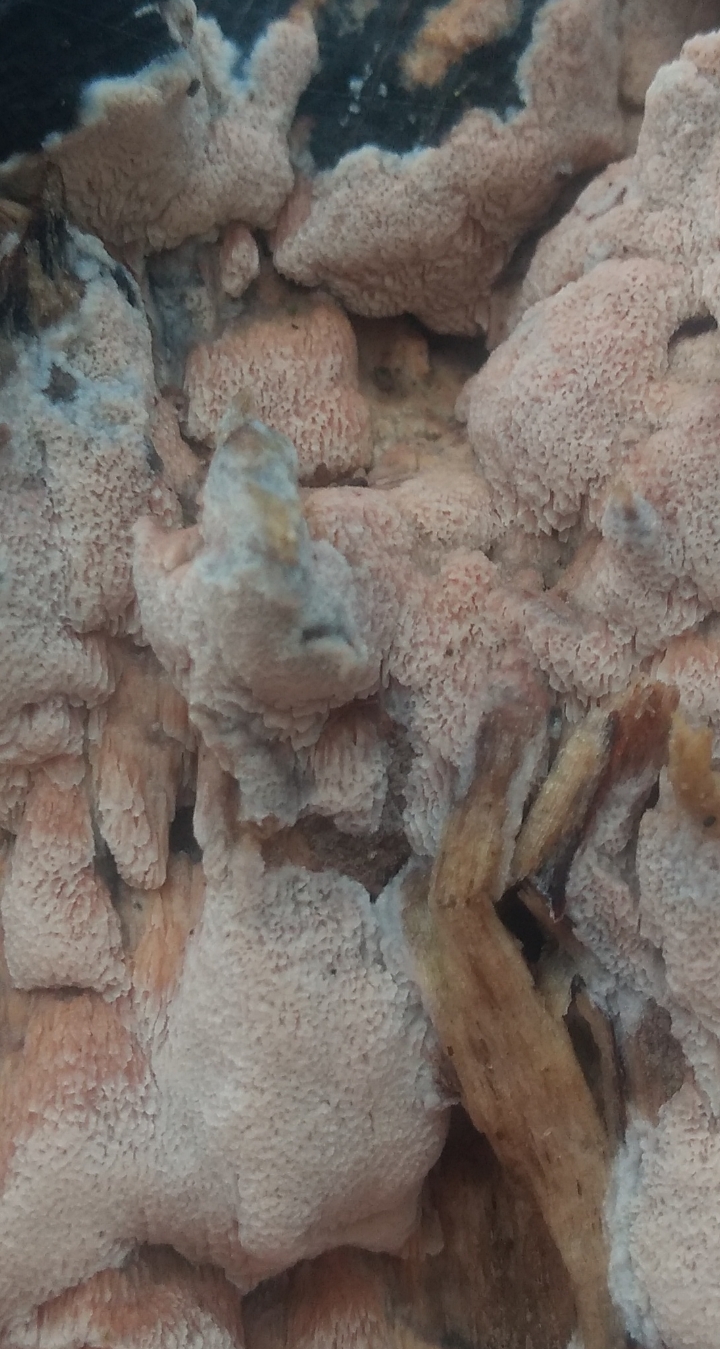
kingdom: Fungi
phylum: Basidiomycota
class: Agaricomycetes
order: Polyporales
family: Meruliaceae
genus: Mycoacia
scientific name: Mycoacia gilvescens
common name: rosa pastelporesvamp
